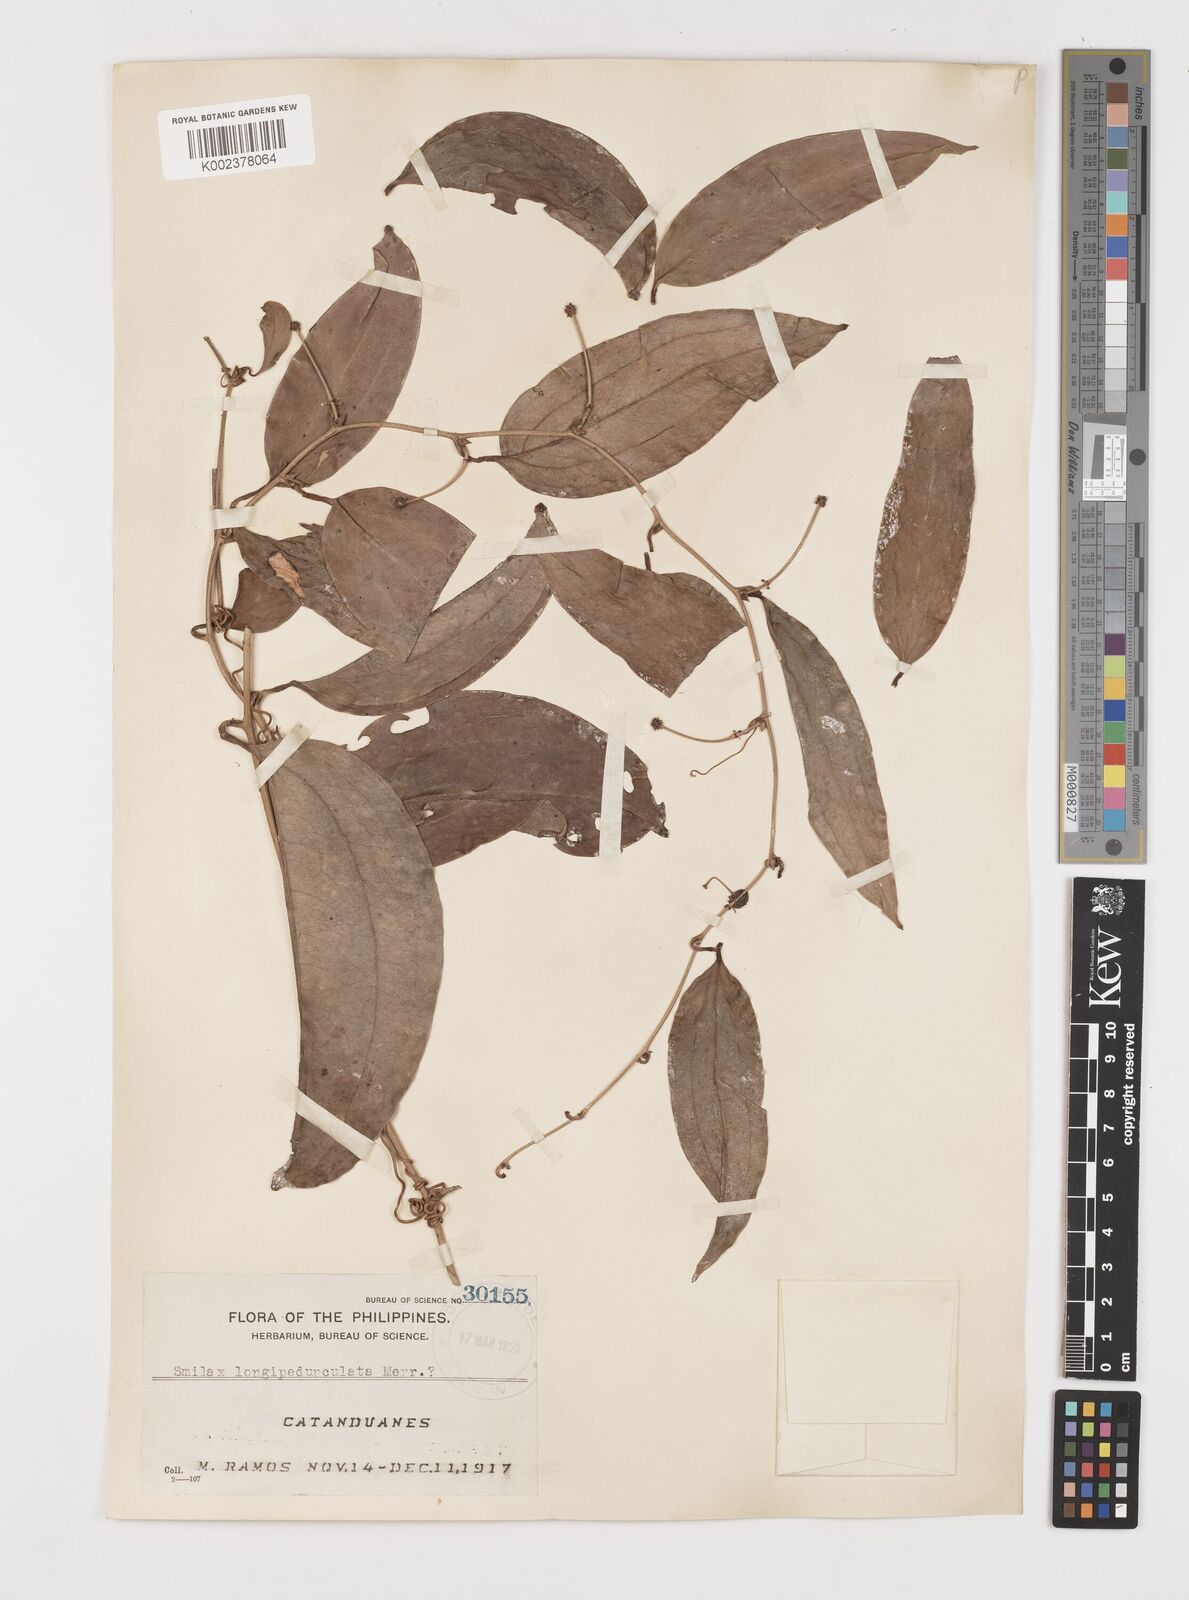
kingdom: Plantae
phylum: Tracheophyta
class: Liliopsida
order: Liliales
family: Smilacaceae
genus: Smilax
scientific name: Smilax nipponica
